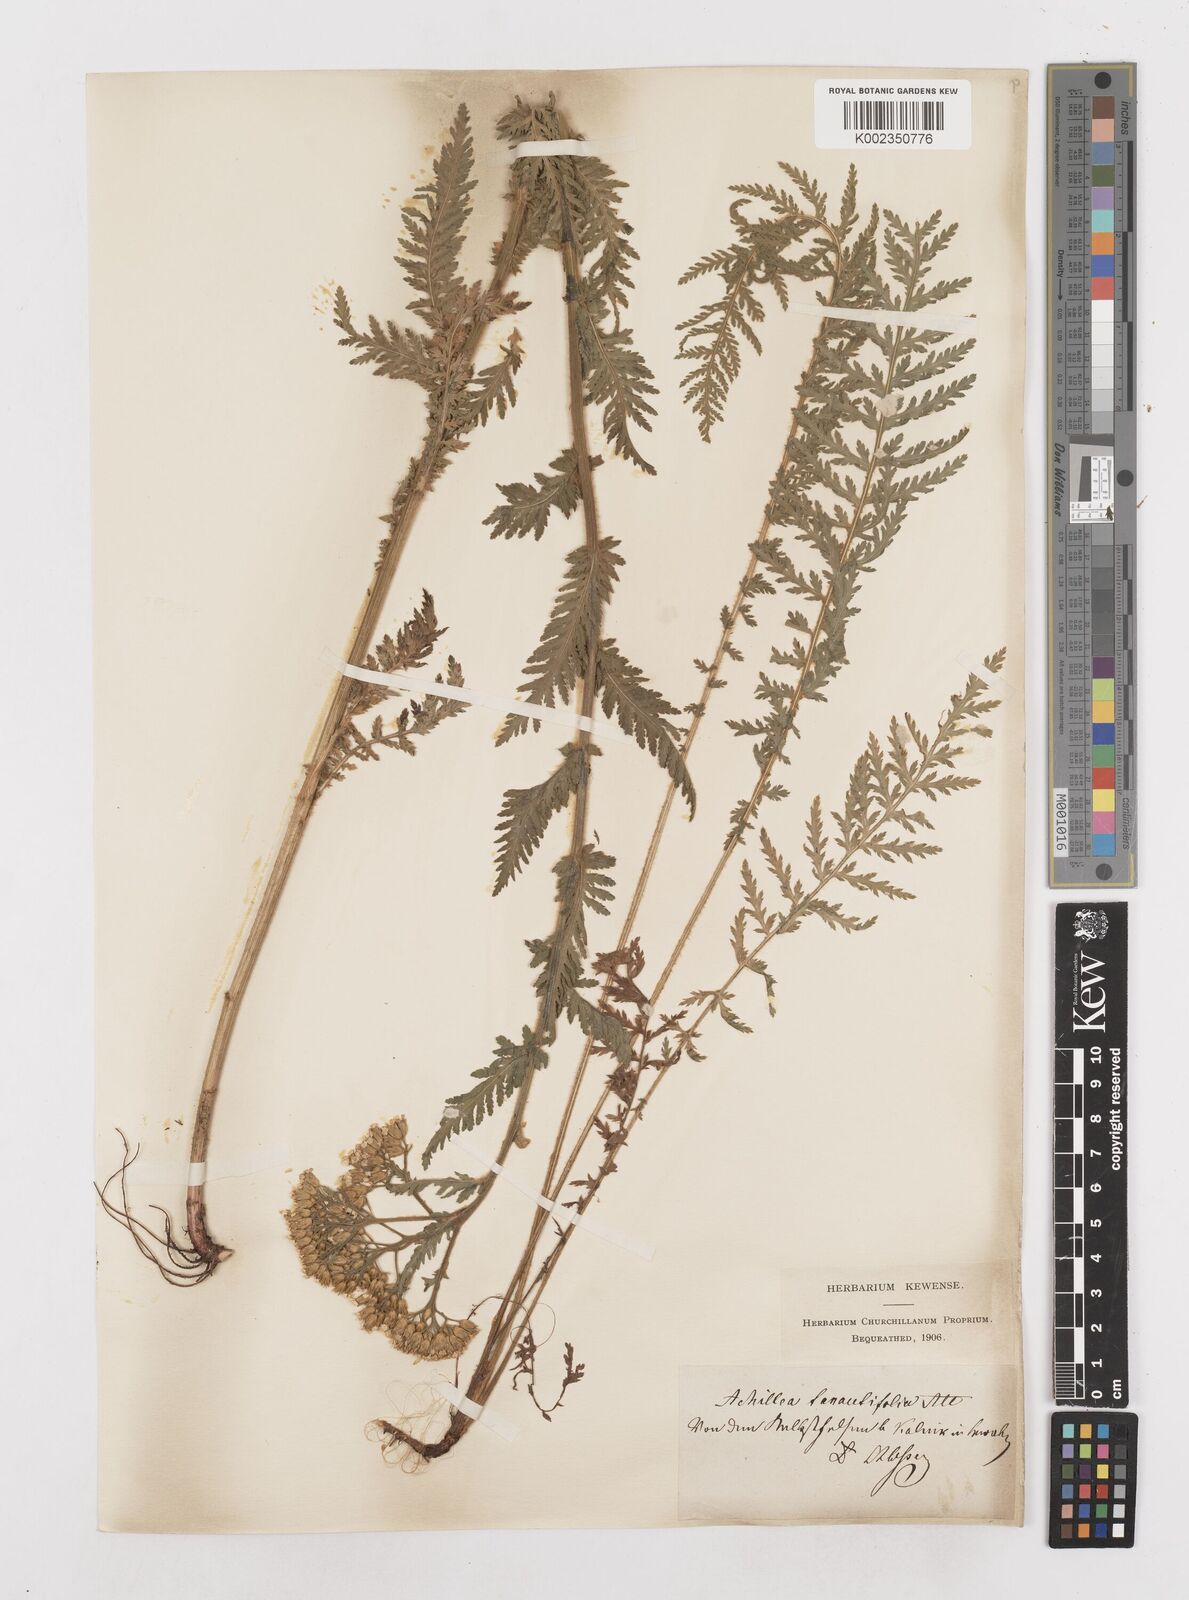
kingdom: Plantae
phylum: Tracheophyta
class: Magnoliopsida
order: Asterales
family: Asteraceae
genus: Achillea
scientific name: Achillea distans
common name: Tall yarrow
